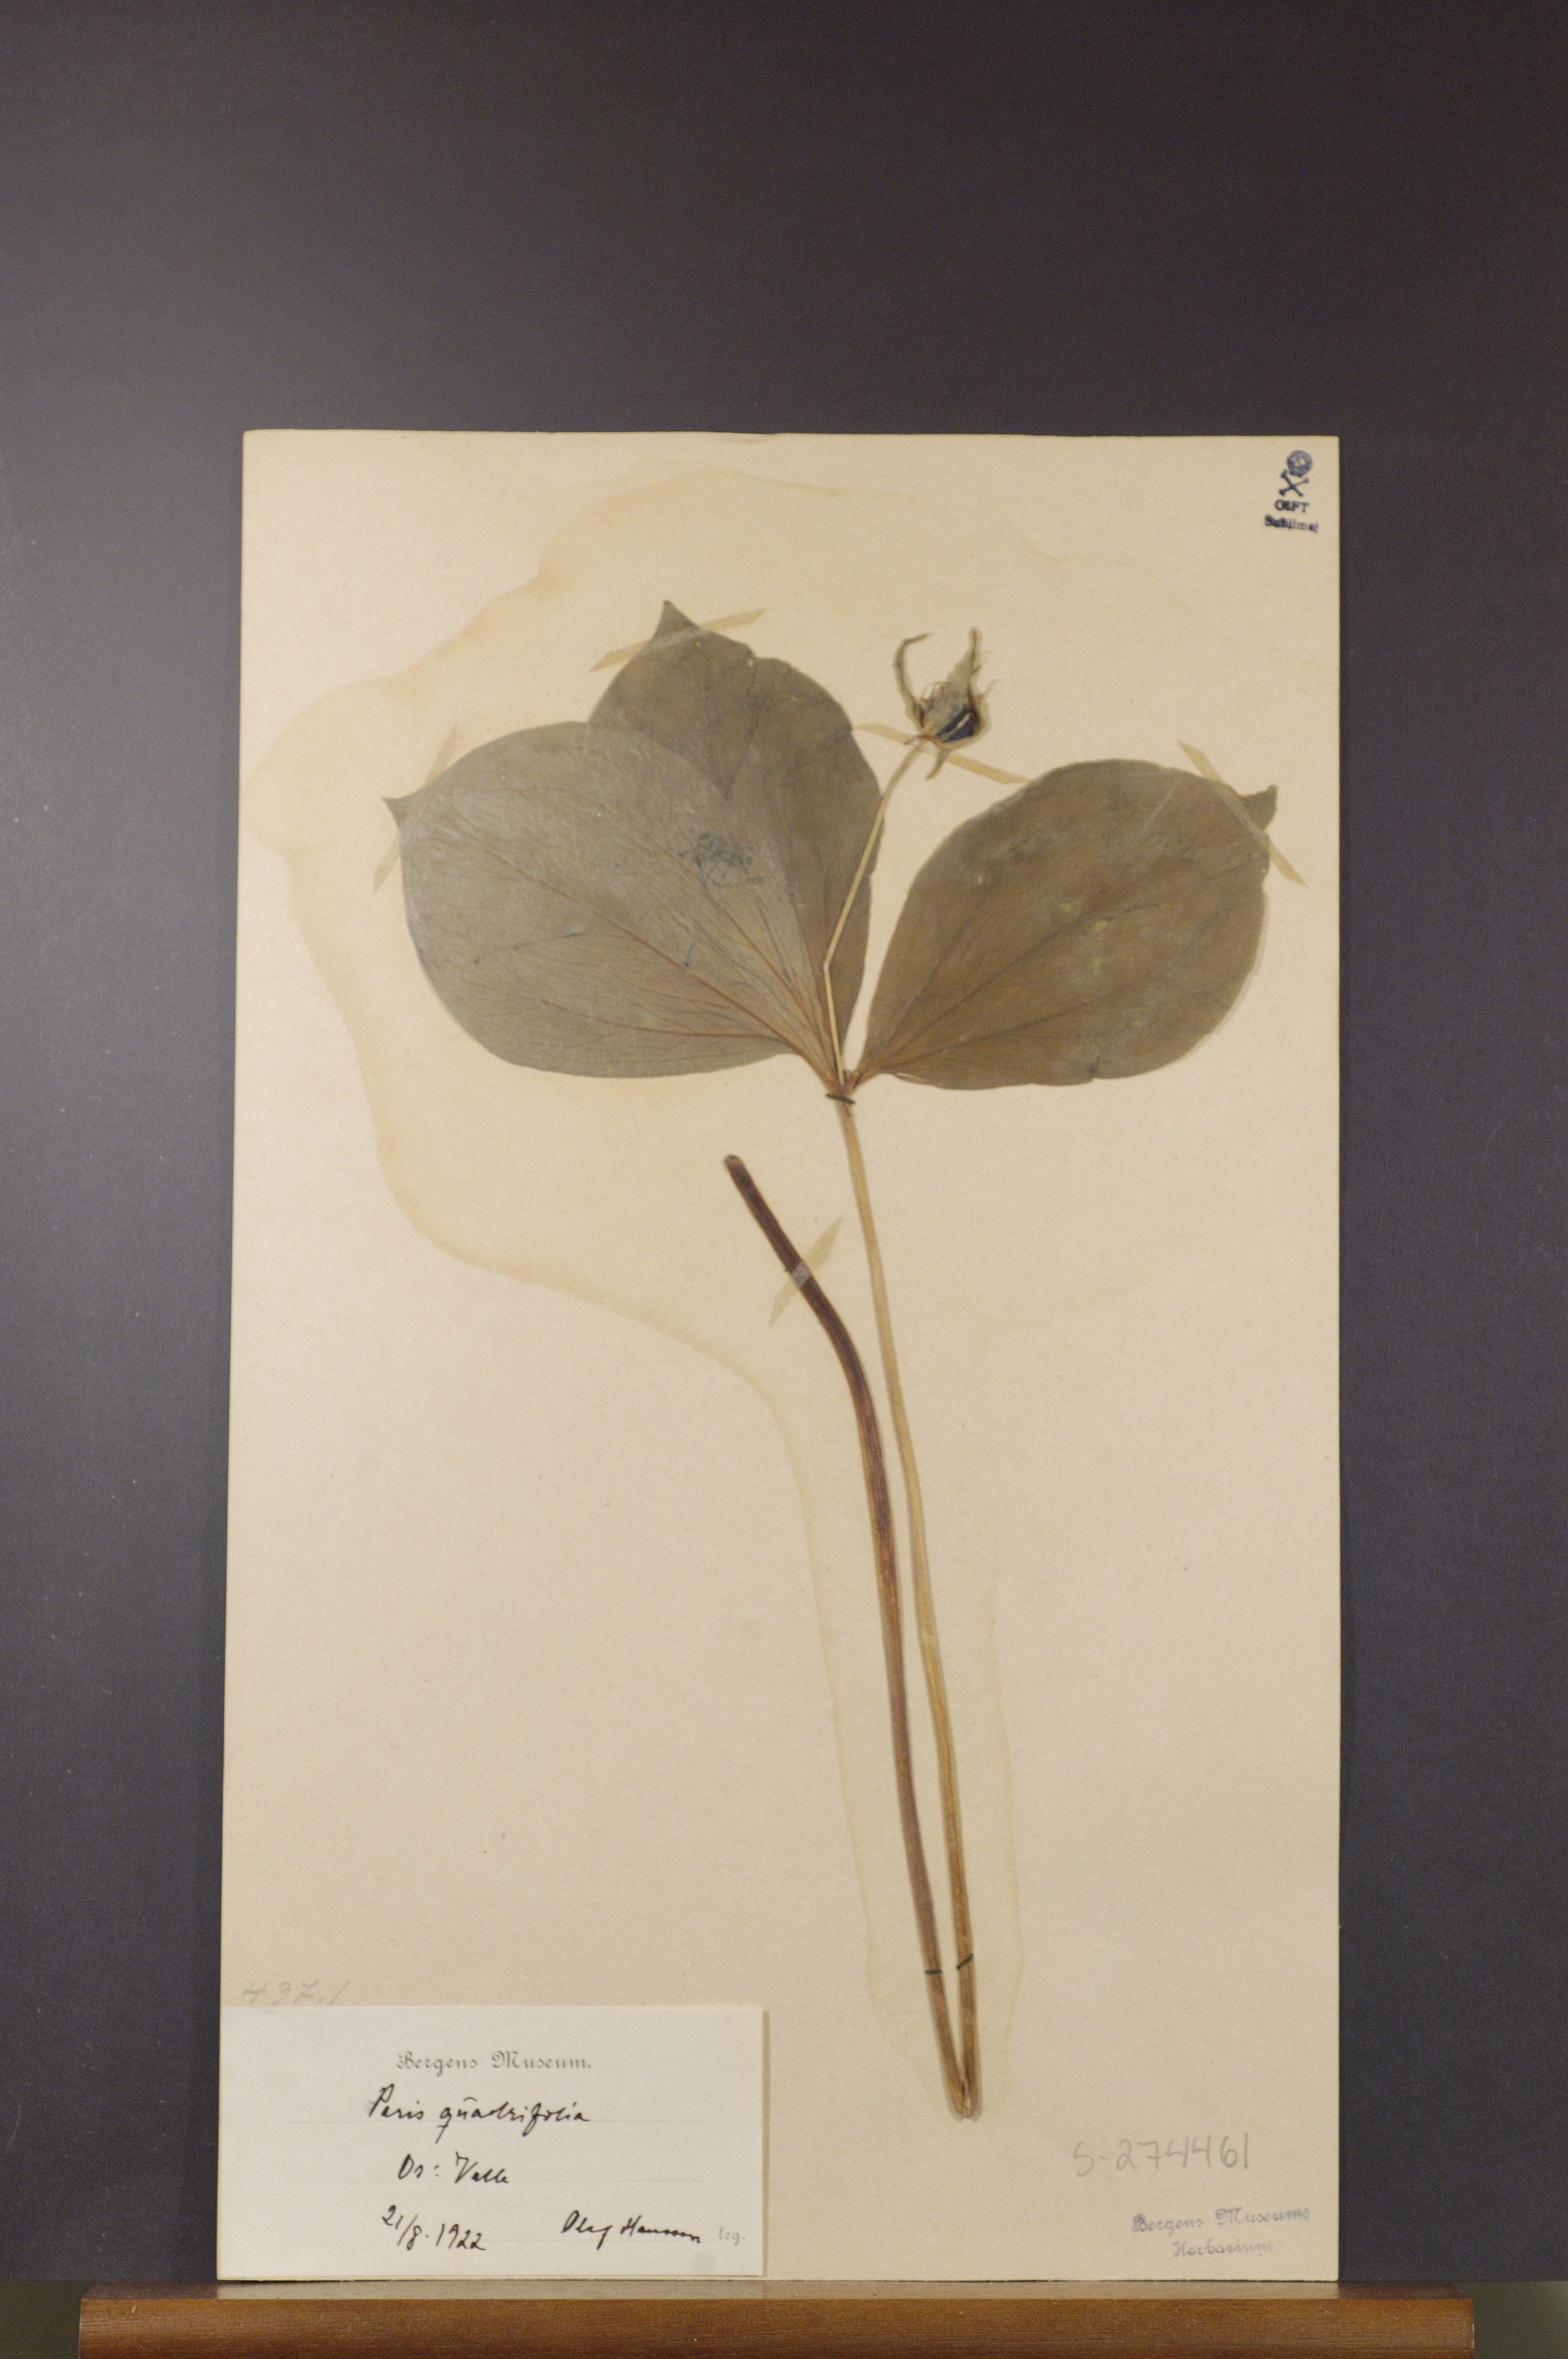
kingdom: Plantae
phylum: Tracheophyta
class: Liliopsida
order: Liliales
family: Melanthiaceae
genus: Paris
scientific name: Paris quadrifolia
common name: Herb-paris
